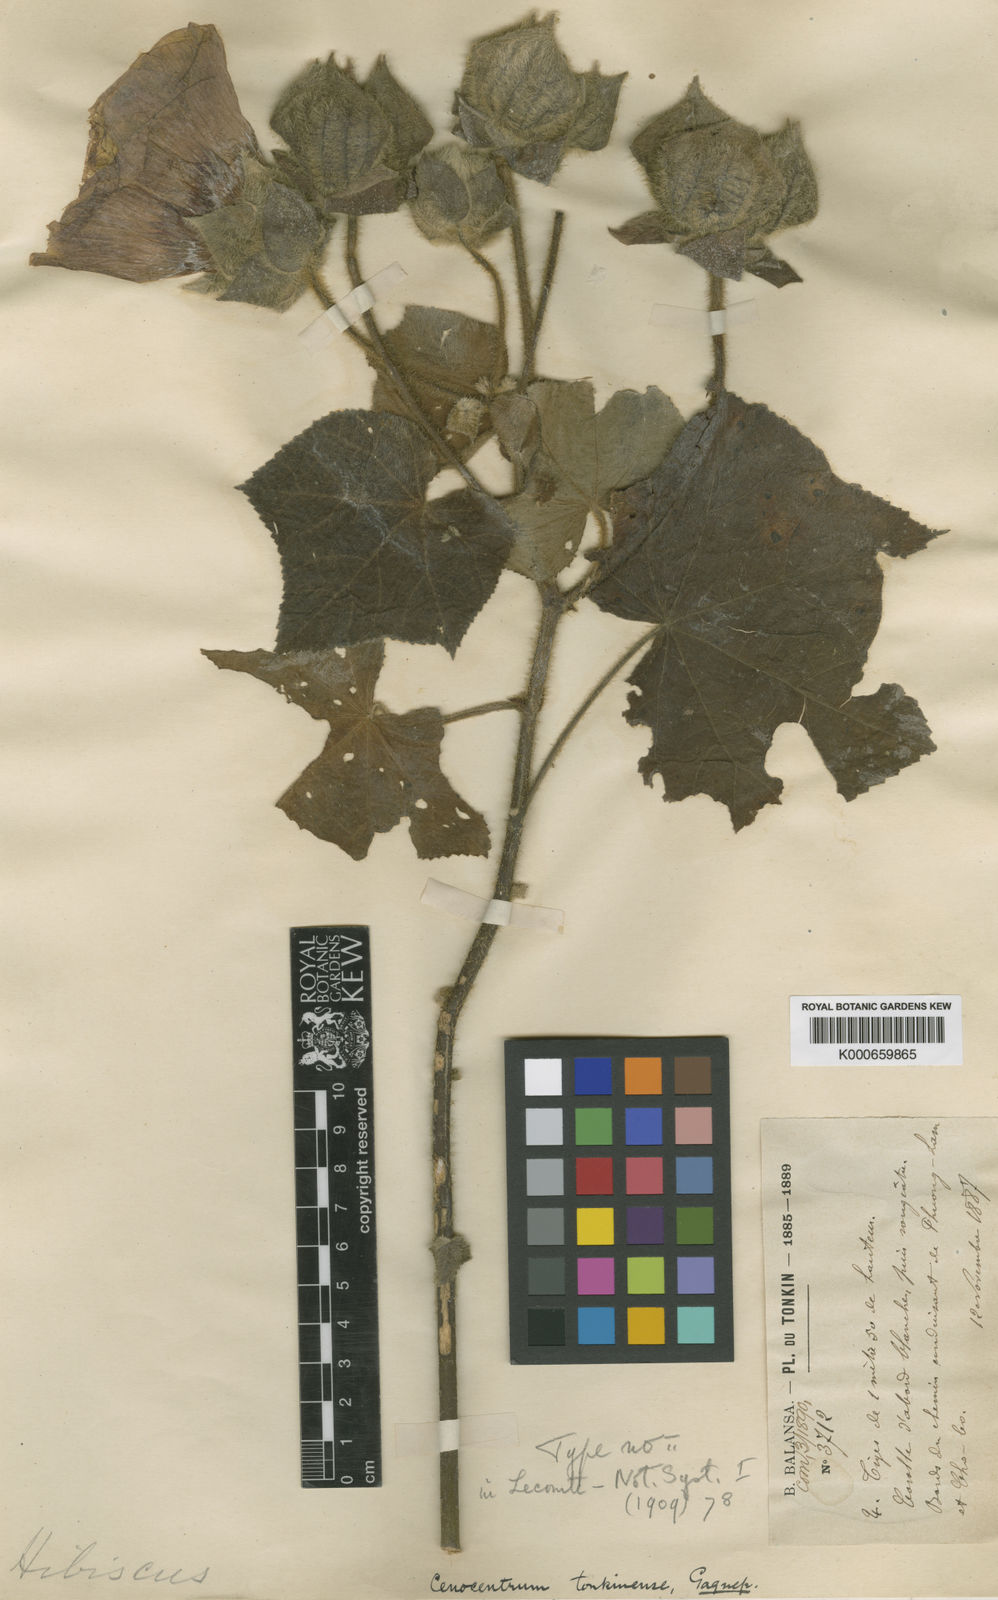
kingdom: Plantae
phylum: Tracheophyta
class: Magnoliopsida
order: Malvales
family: Malvaceae
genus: Cenocentrum
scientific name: Cenocentrum tonkinense
